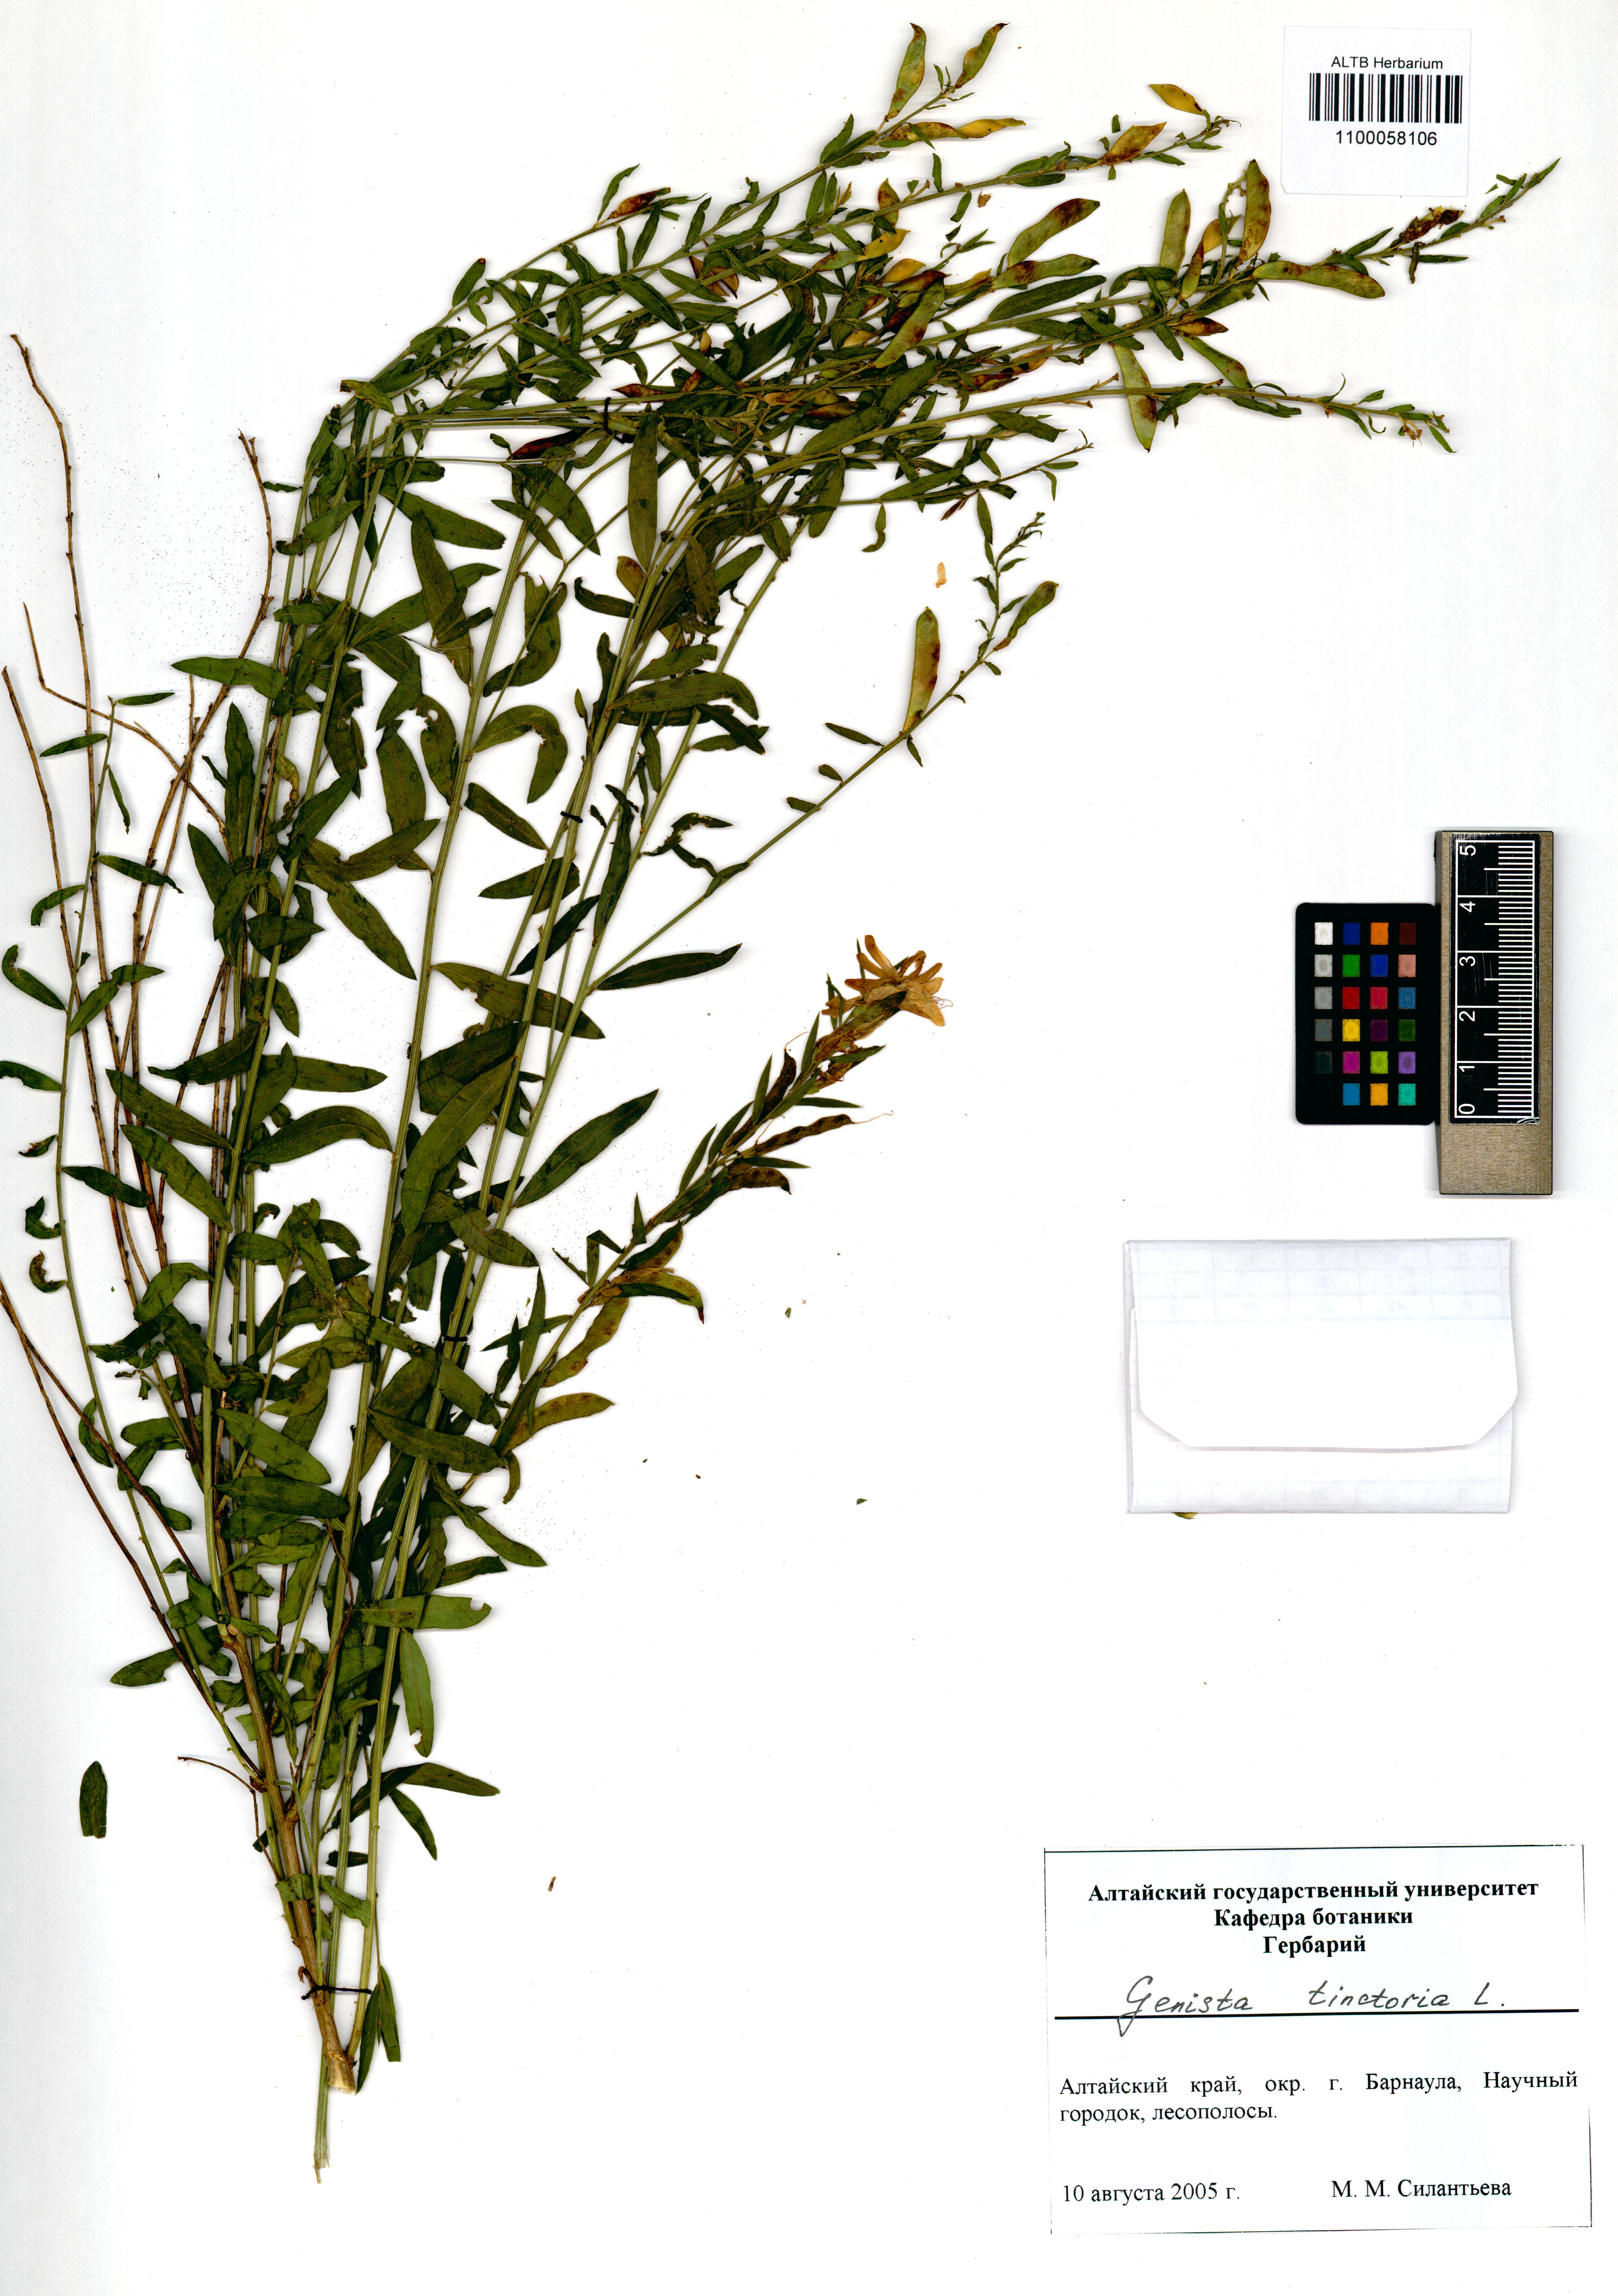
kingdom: Plantae
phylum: Tracheophyta
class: Magnoliopsida
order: Fabales
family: Fabaceae
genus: Genista
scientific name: Genista tinctoria
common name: Dyer's greenweed
